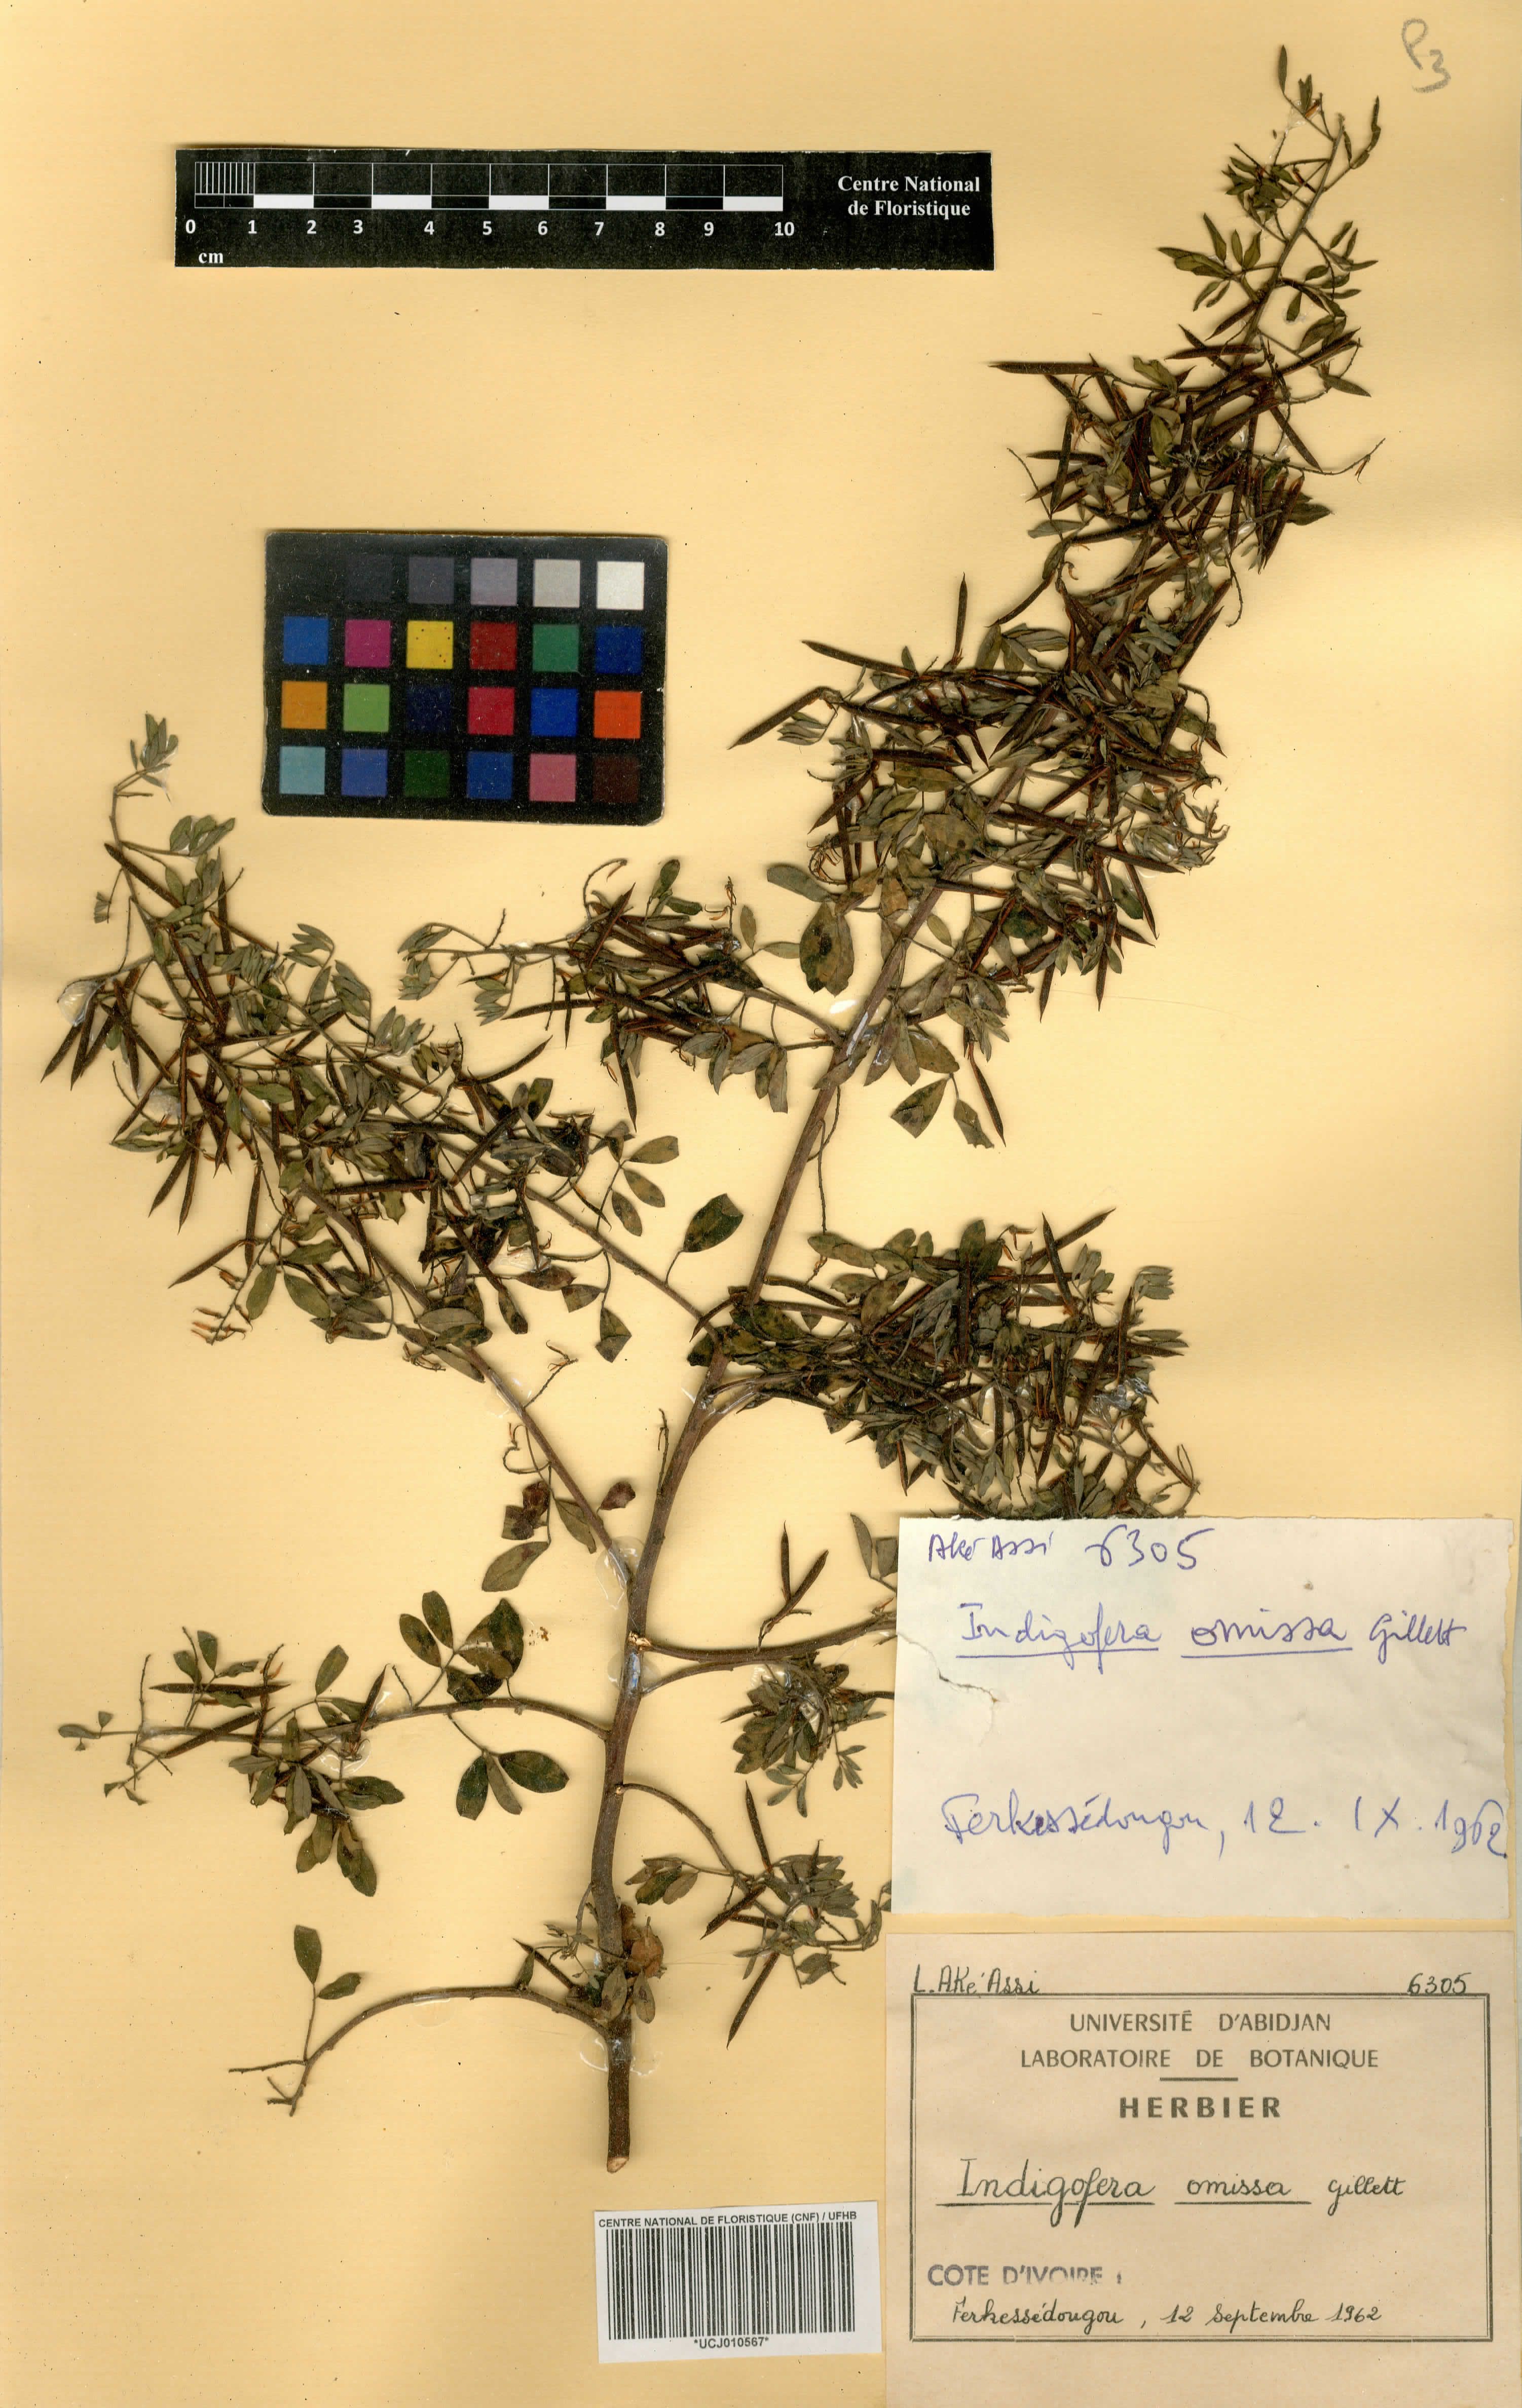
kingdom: Plantae
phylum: Tracheophyta
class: Magnoliopsida
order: Fabales
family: Fabaceae
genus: Indigofera
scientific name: Indigofera omissa
